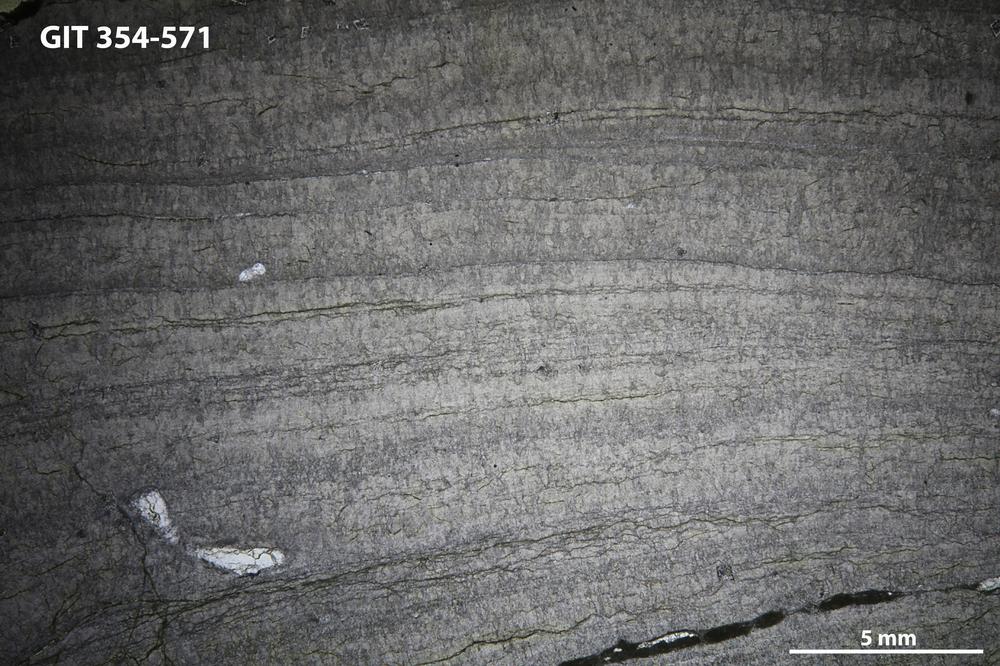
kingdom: Animalia
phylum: Porifera
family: Densastromatidae
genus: Densastroma
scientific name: Densastroma Actinostroma pexisum
